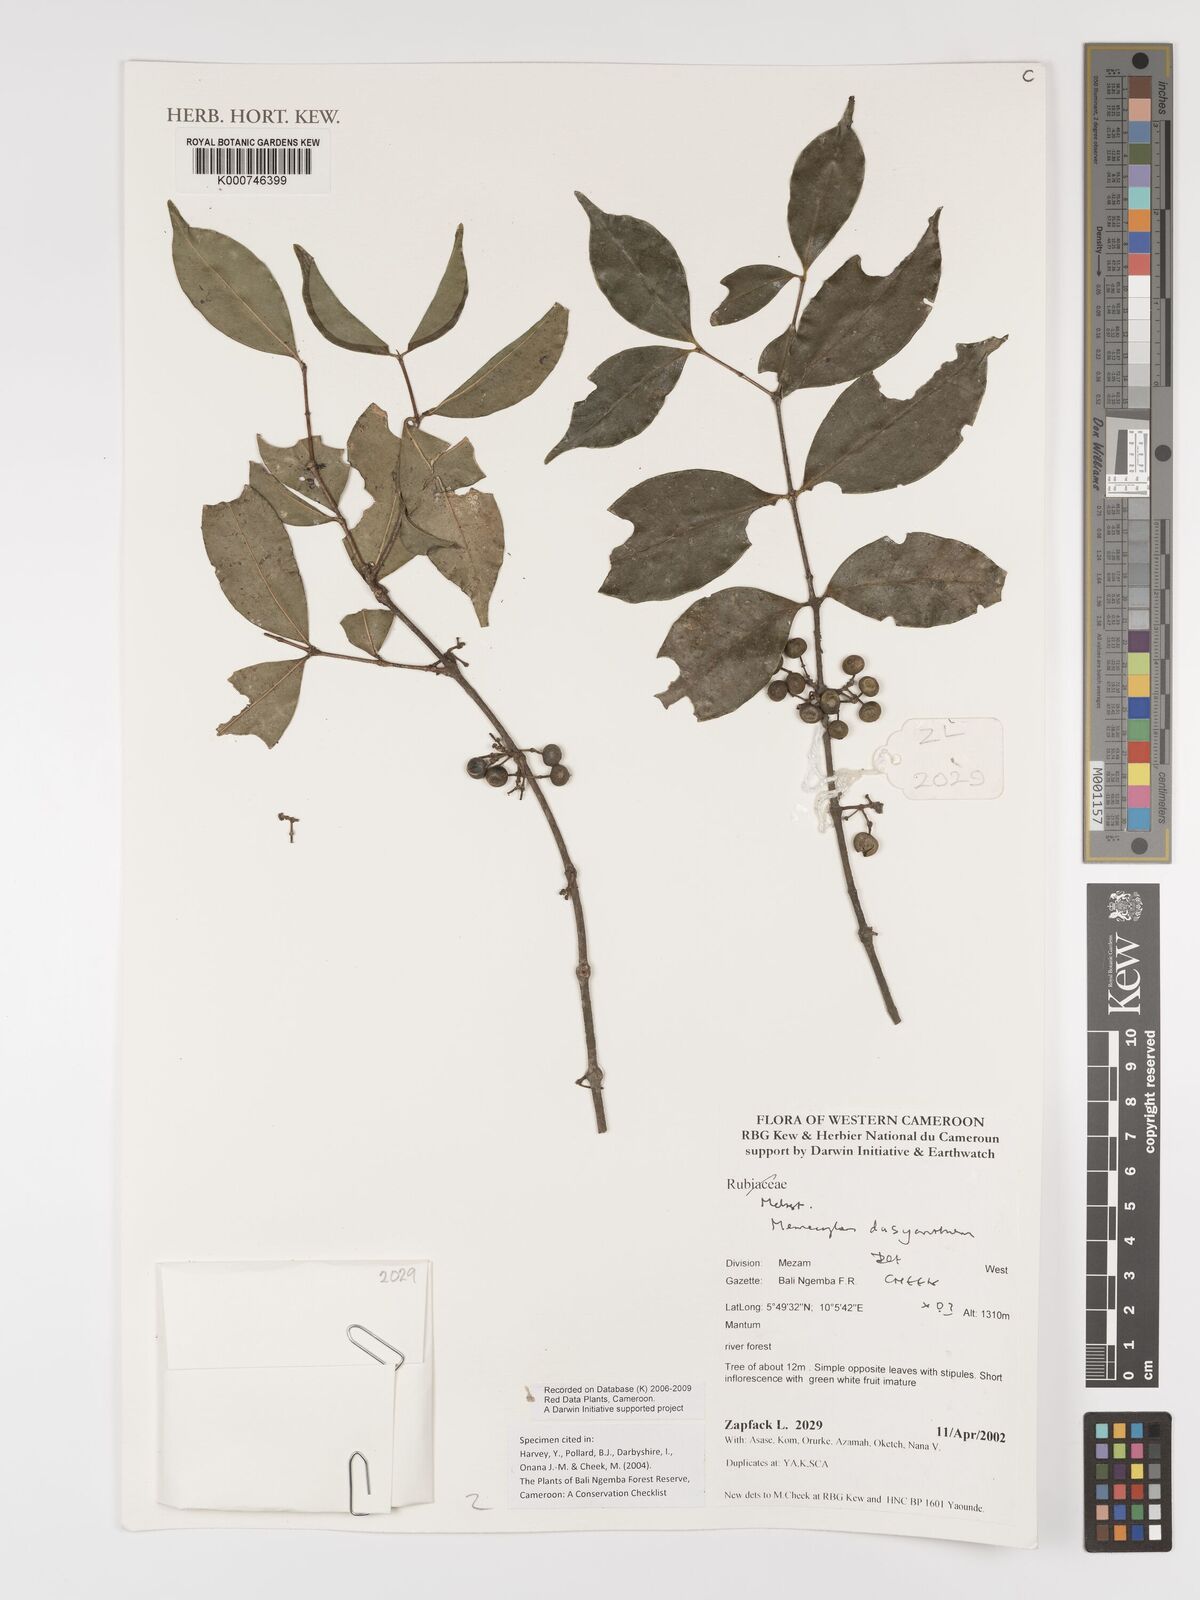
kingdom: Plantae
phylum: Tracheophyta
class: Magnoliopsida
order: Myrtales
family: Melastomataceae
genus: Memecylon
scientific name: Memecylon dasyanthum
